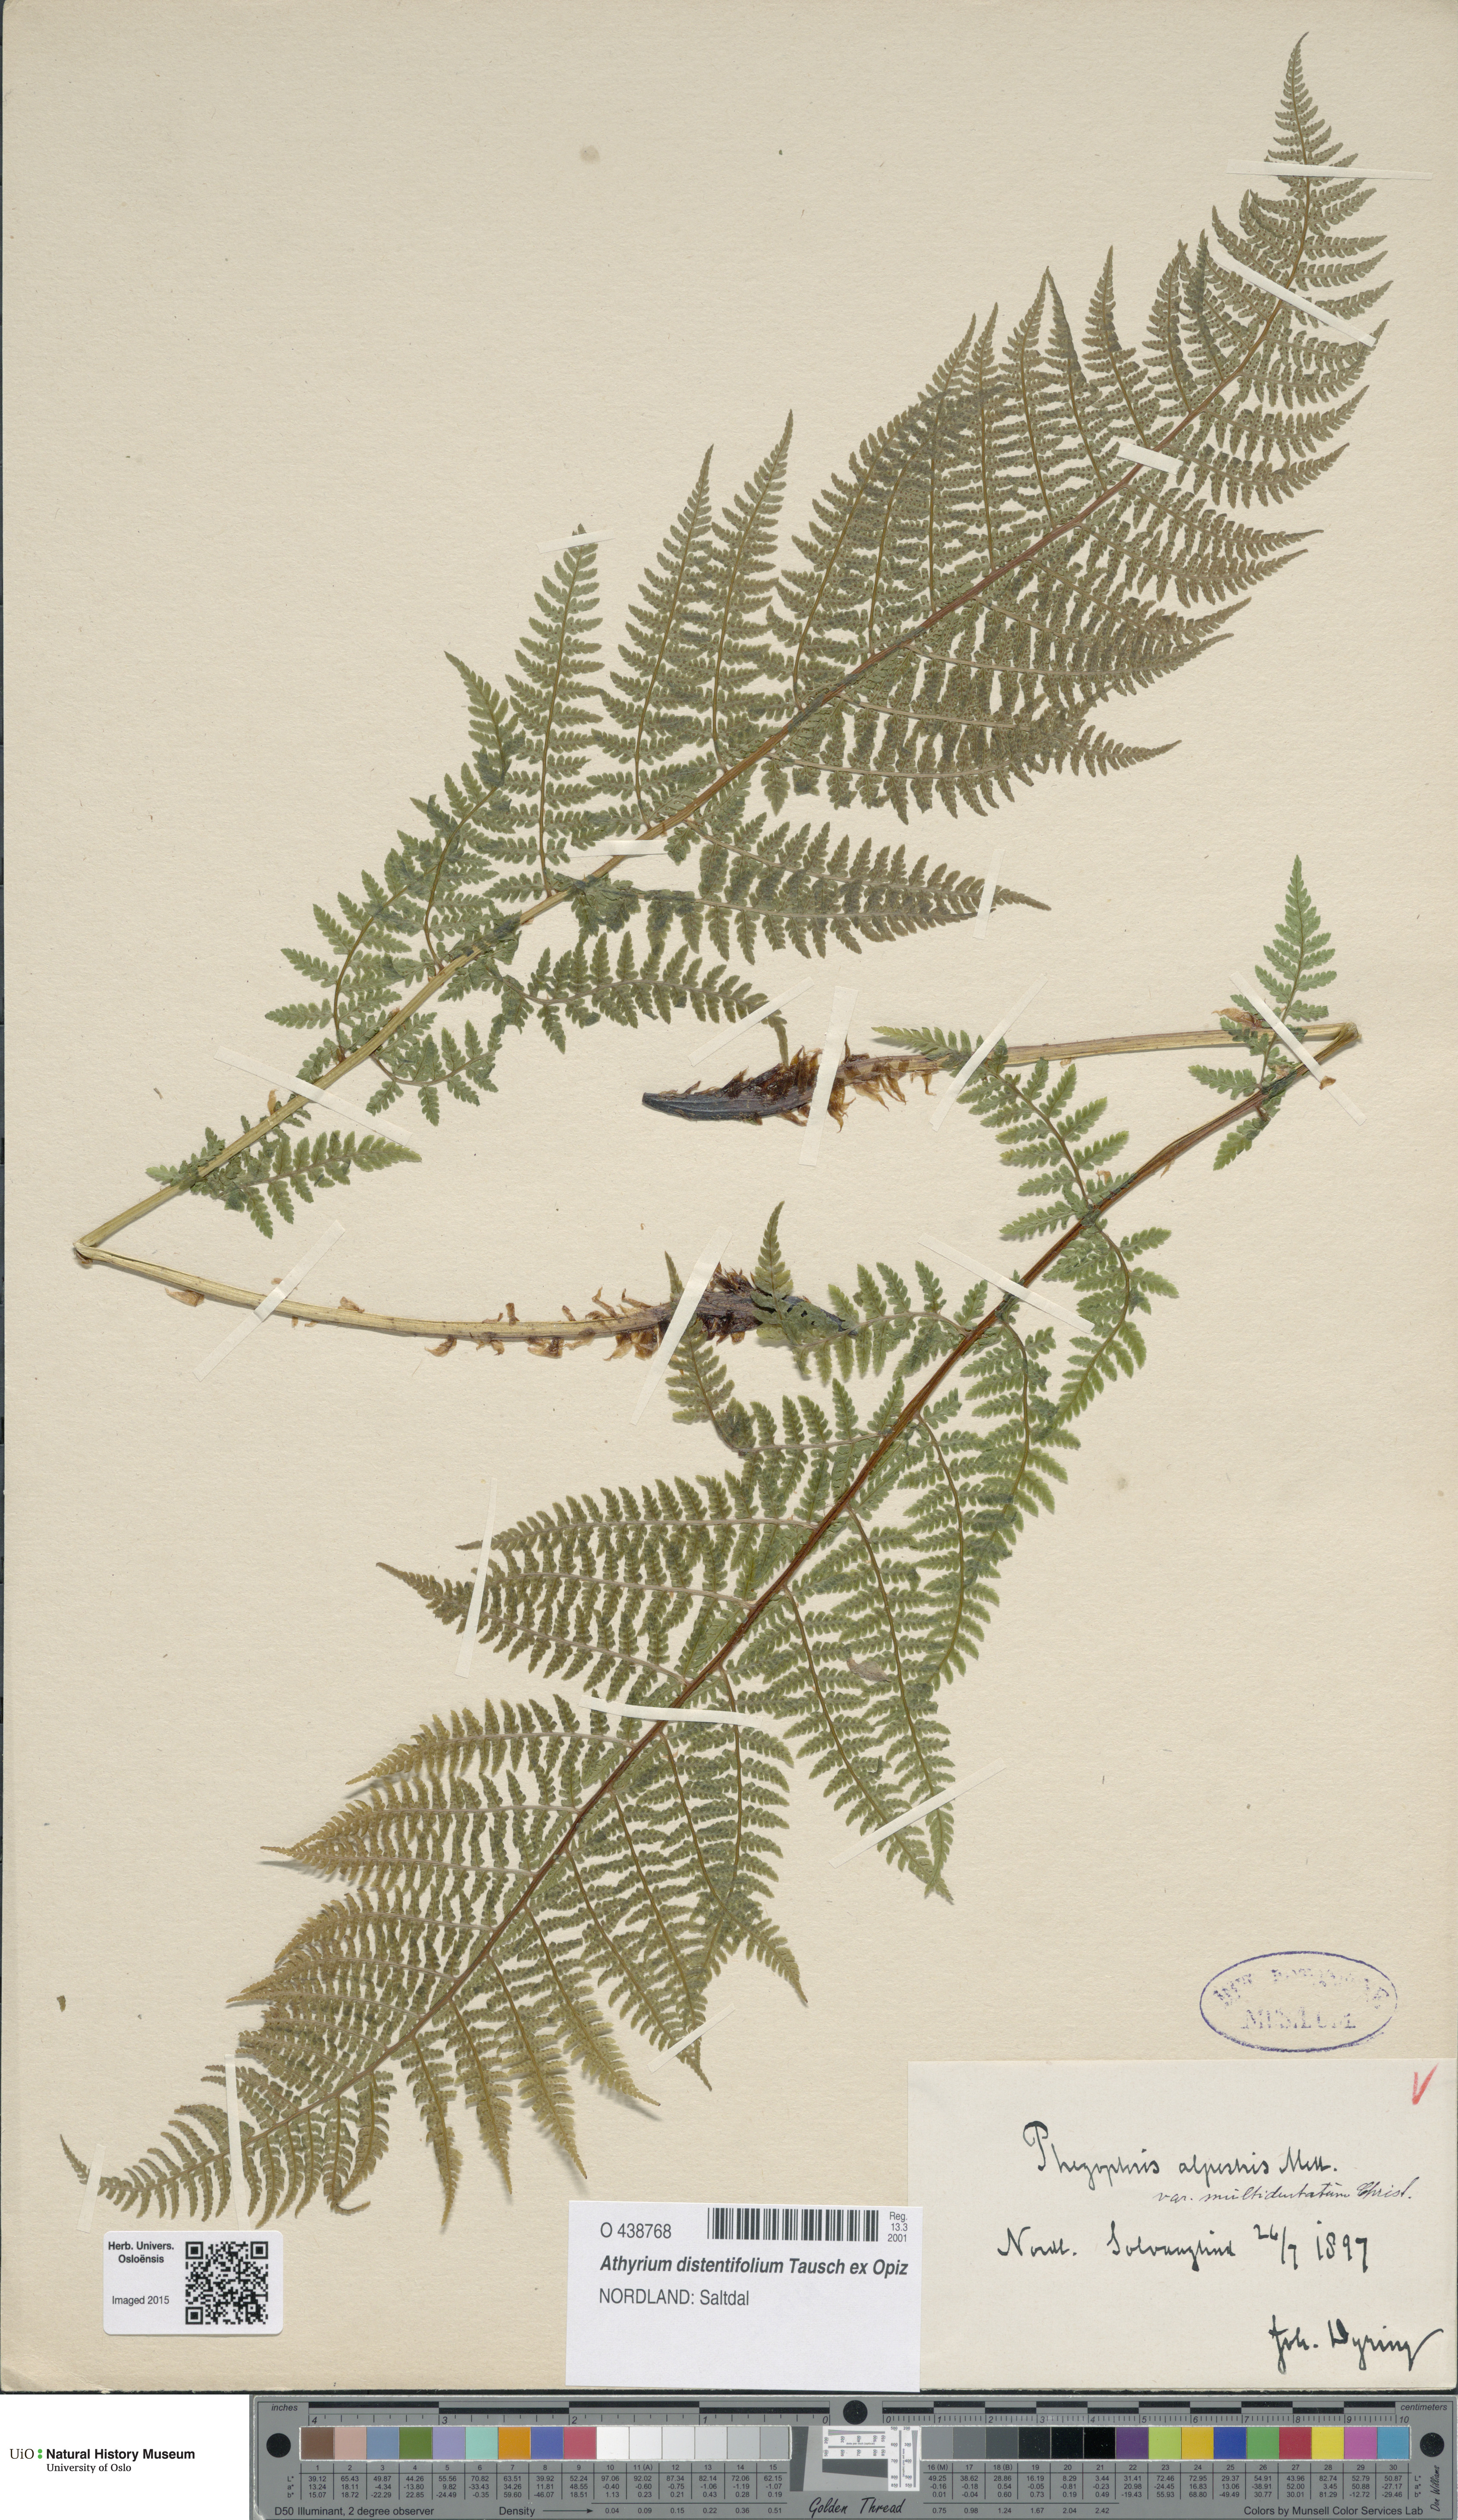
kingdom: Plantae
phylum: Tracheophyta
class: Polypodiopsida
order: Polypodiales
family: Athyriaceae
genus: Pseudathyrium
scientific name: Pseudathyrium alpestre
